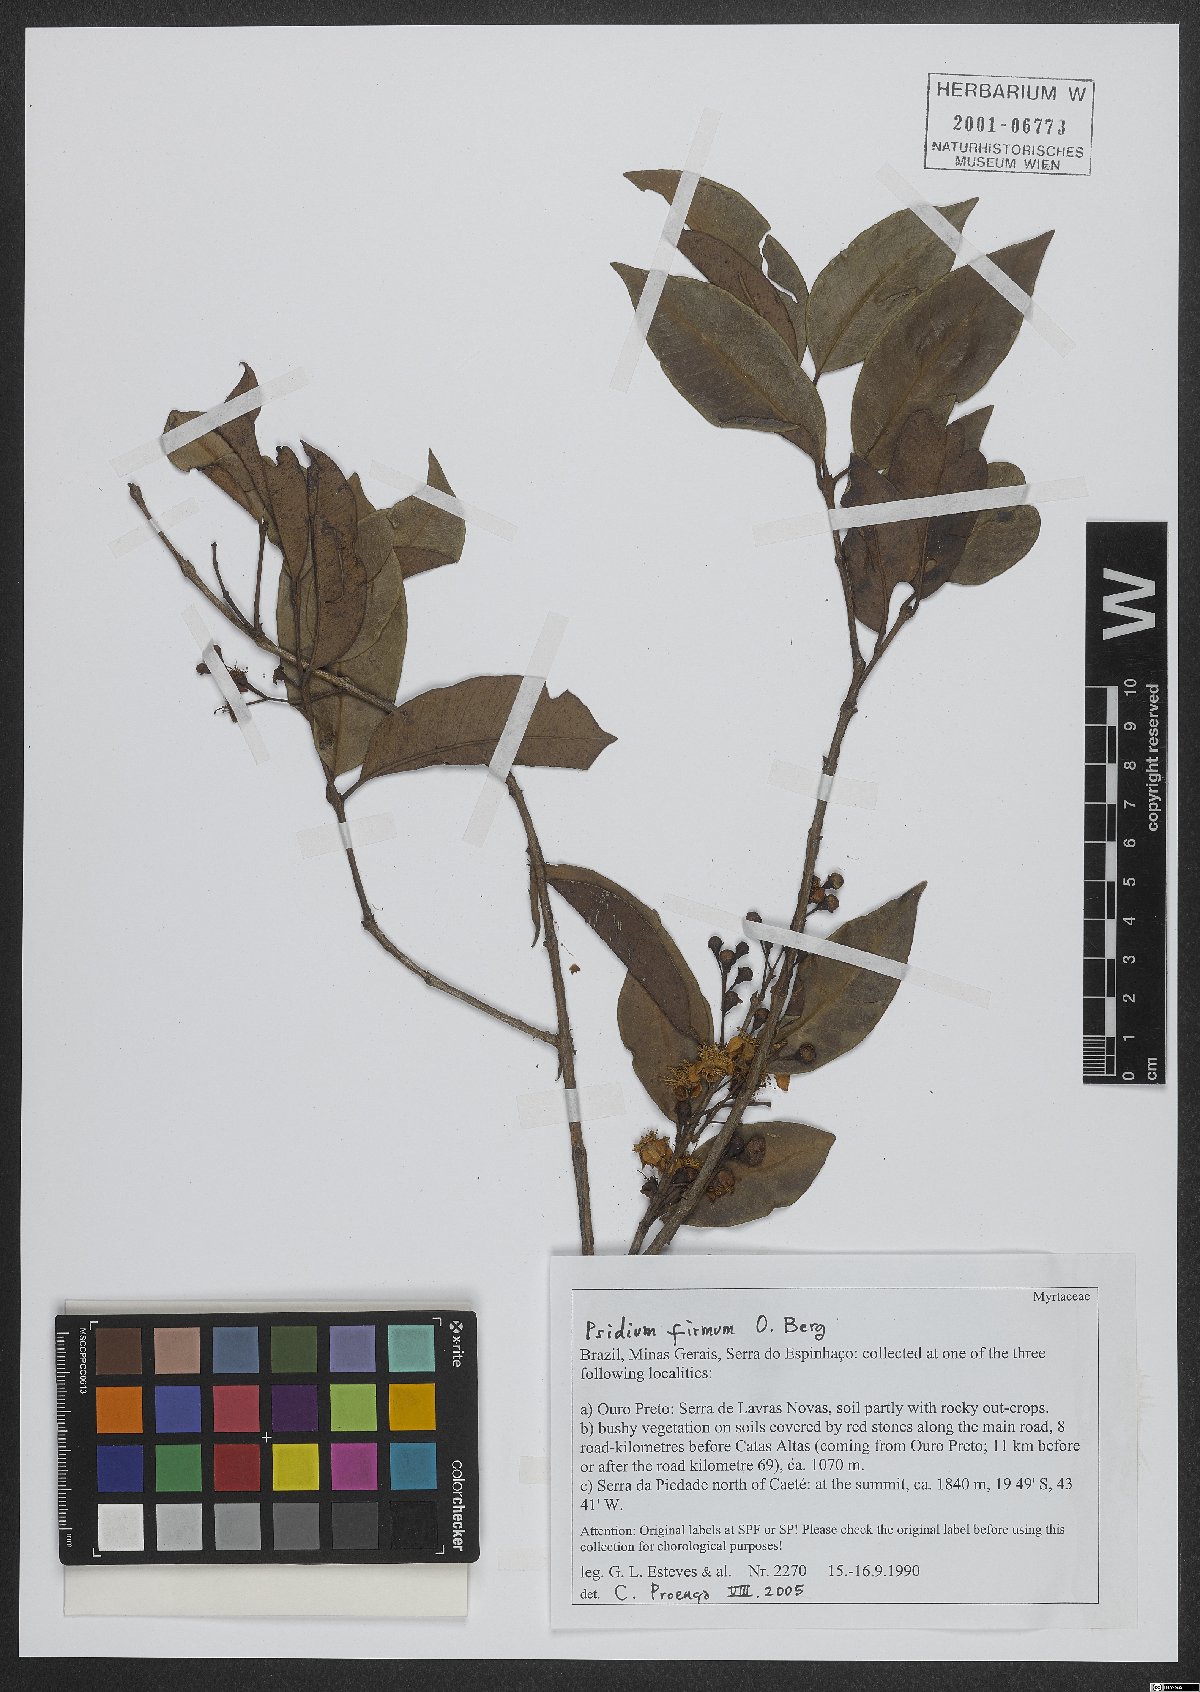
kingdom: Plantae
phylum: Tracheophyta
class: Magnoliopsida
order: Myrtales
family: Myrtaceae
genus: Psidium
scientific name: Psidium firmum
